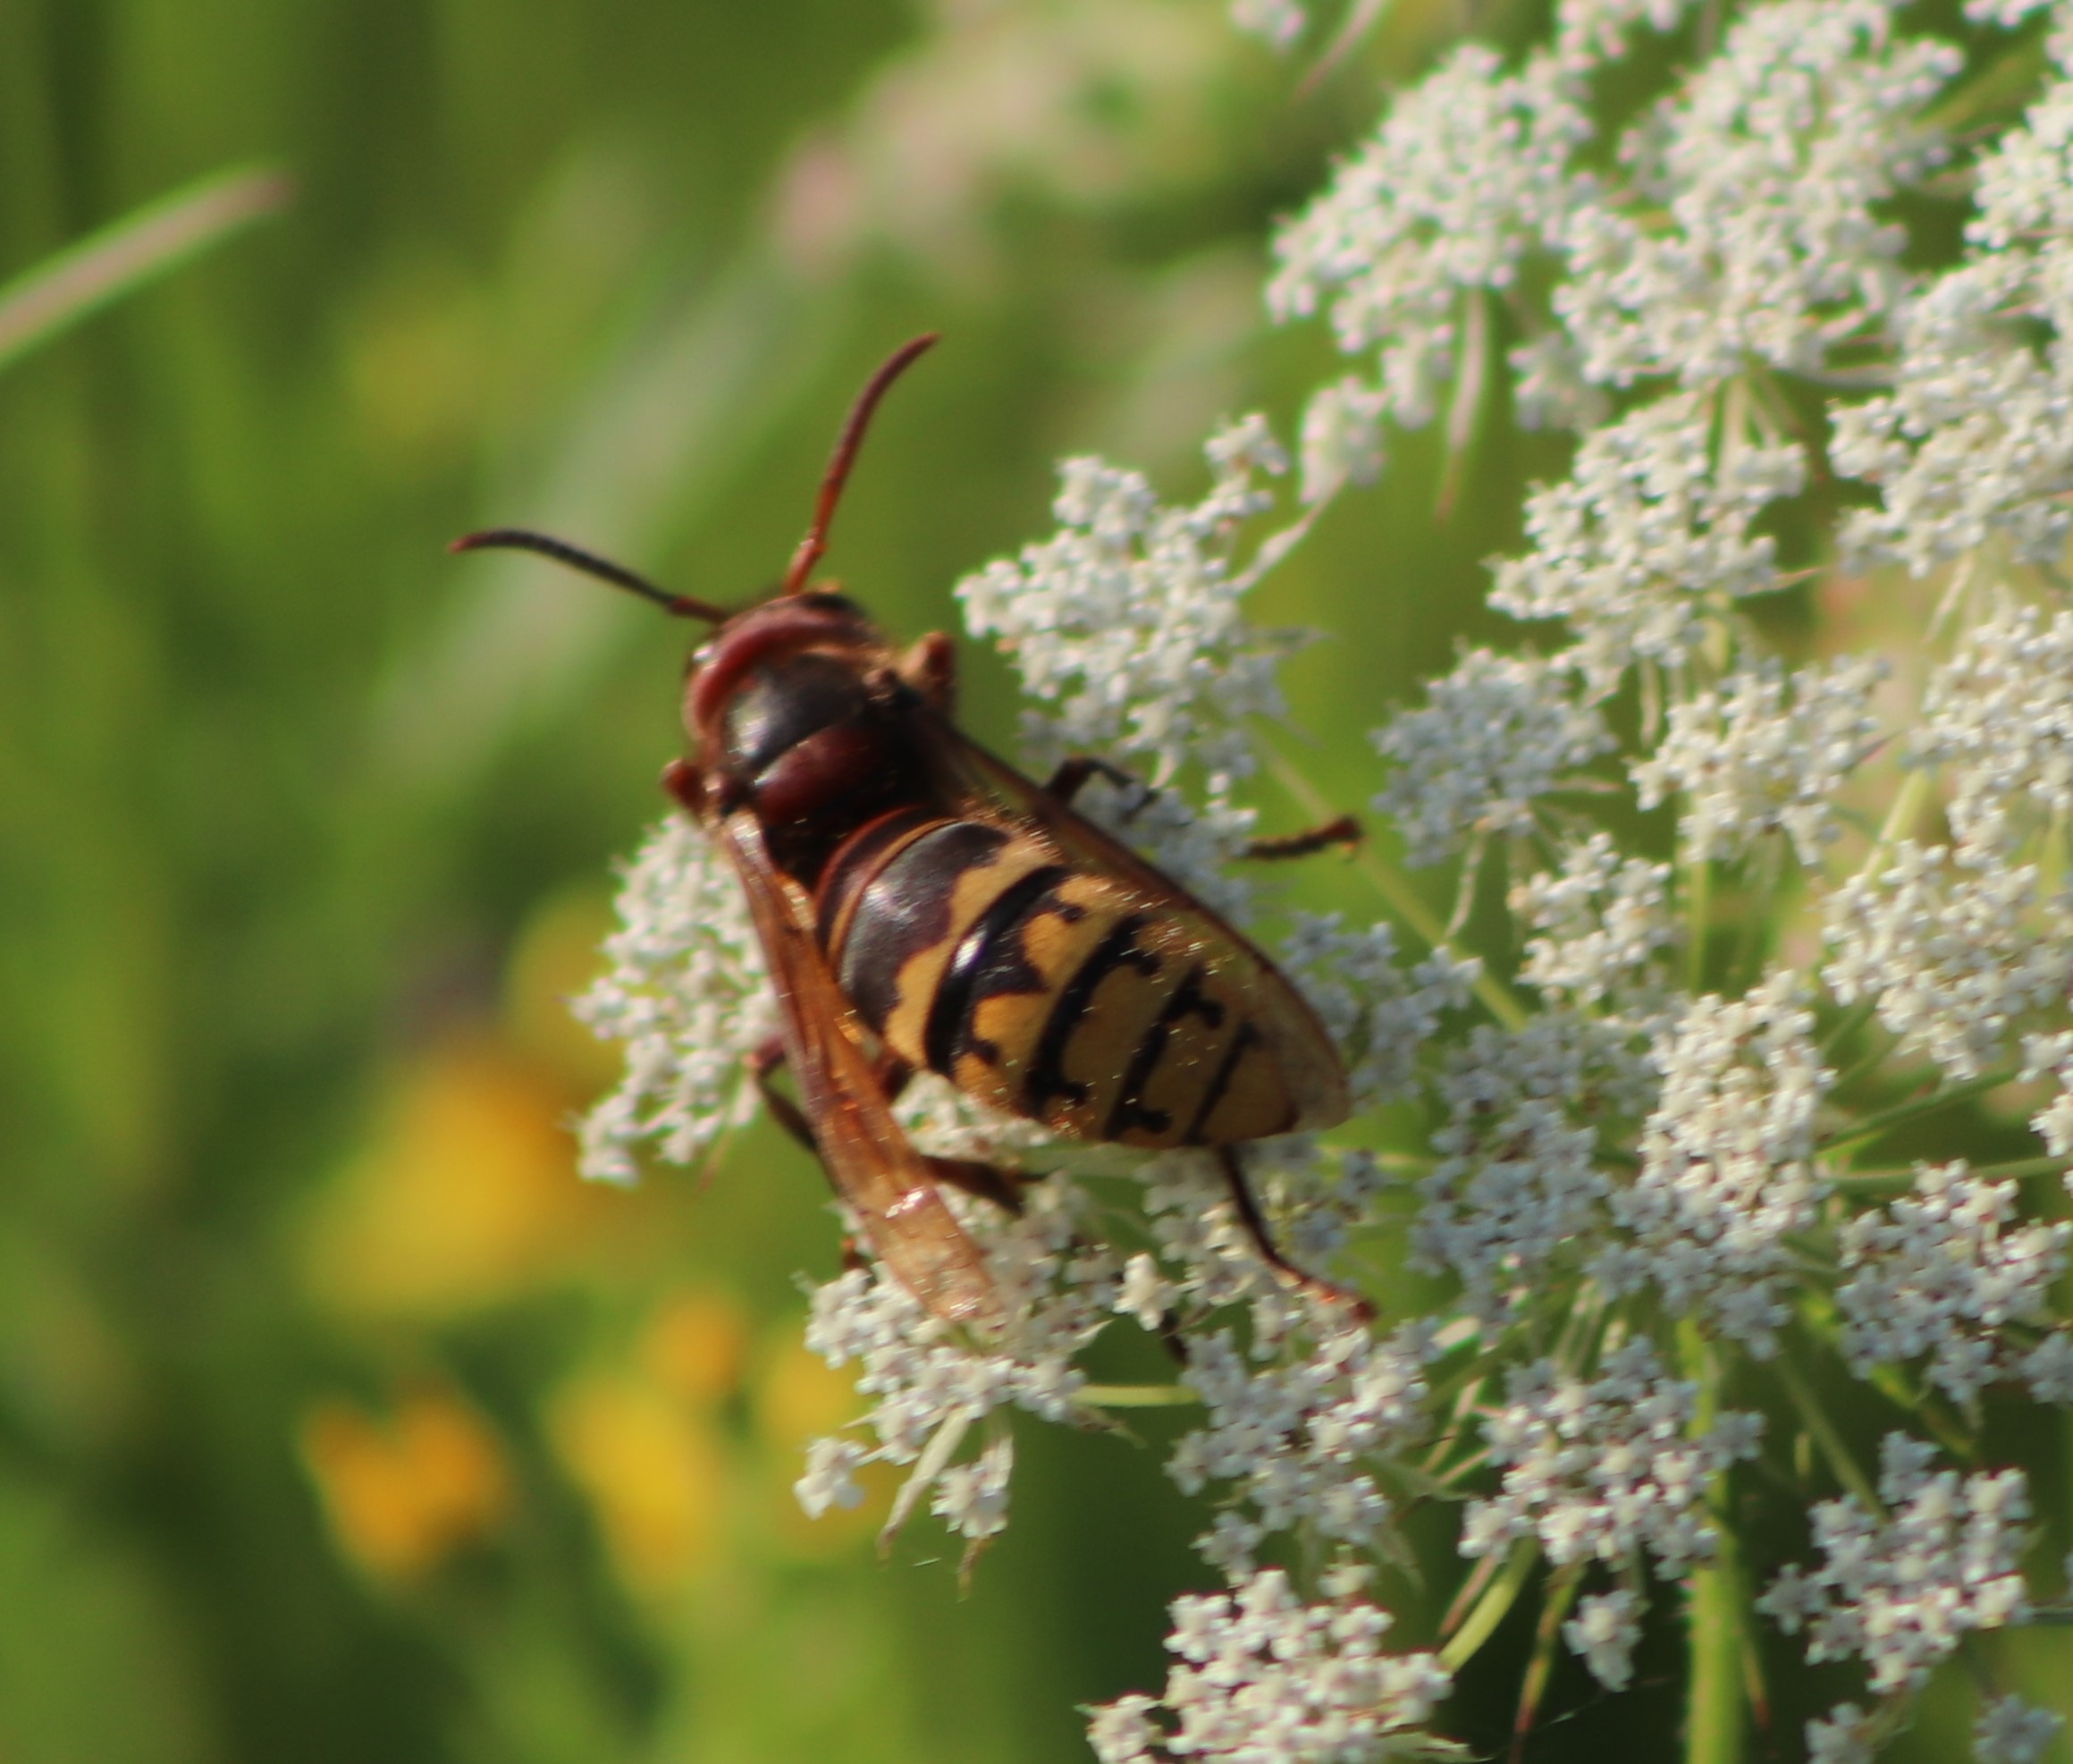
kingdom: Animalia
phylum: Arthropoda
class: Insecta
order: Hymenoptera
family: Vespidae
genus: Vespa
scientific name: Vespa crabro
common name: Stor gedehams
